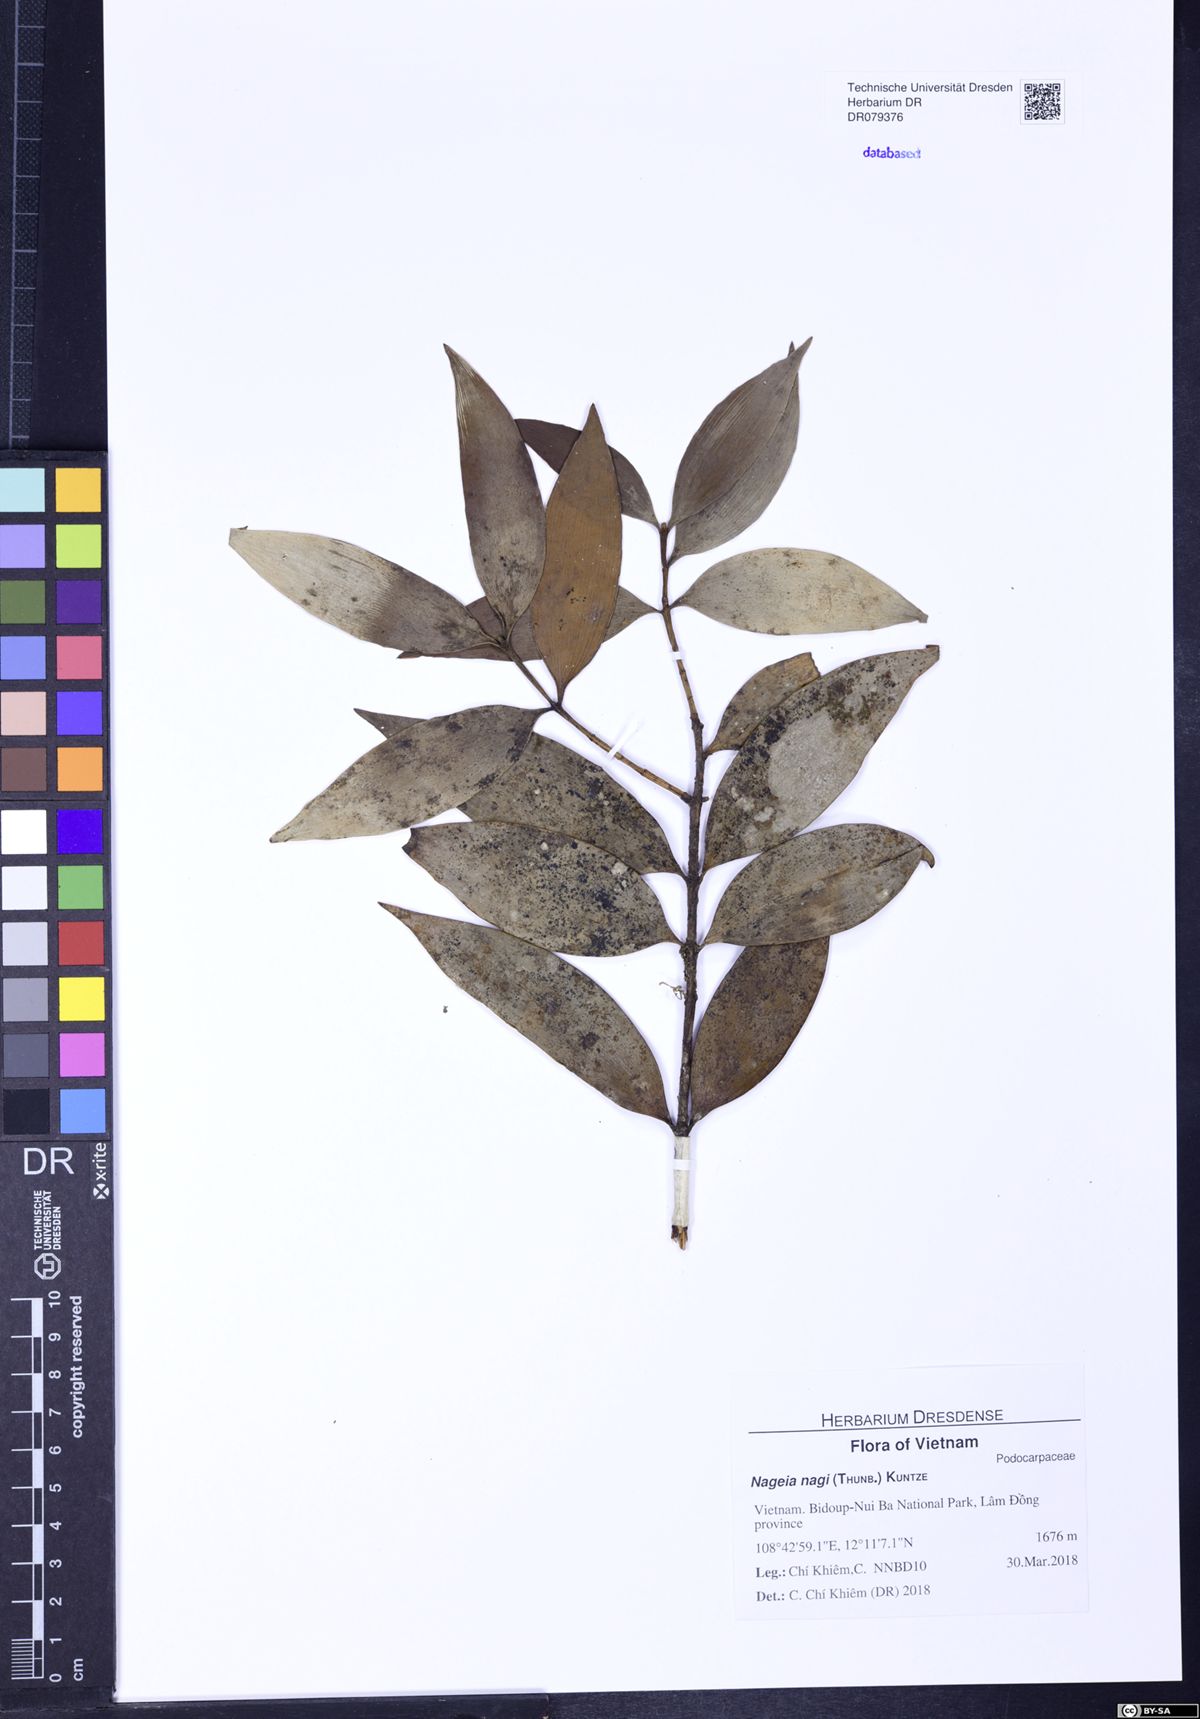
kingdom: Plantae
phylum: Tracheophyta
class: Pinopsida
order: Pinales
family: Podocarpaceae
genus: Nageia
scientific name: Nageia nagi
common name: Kaphal
